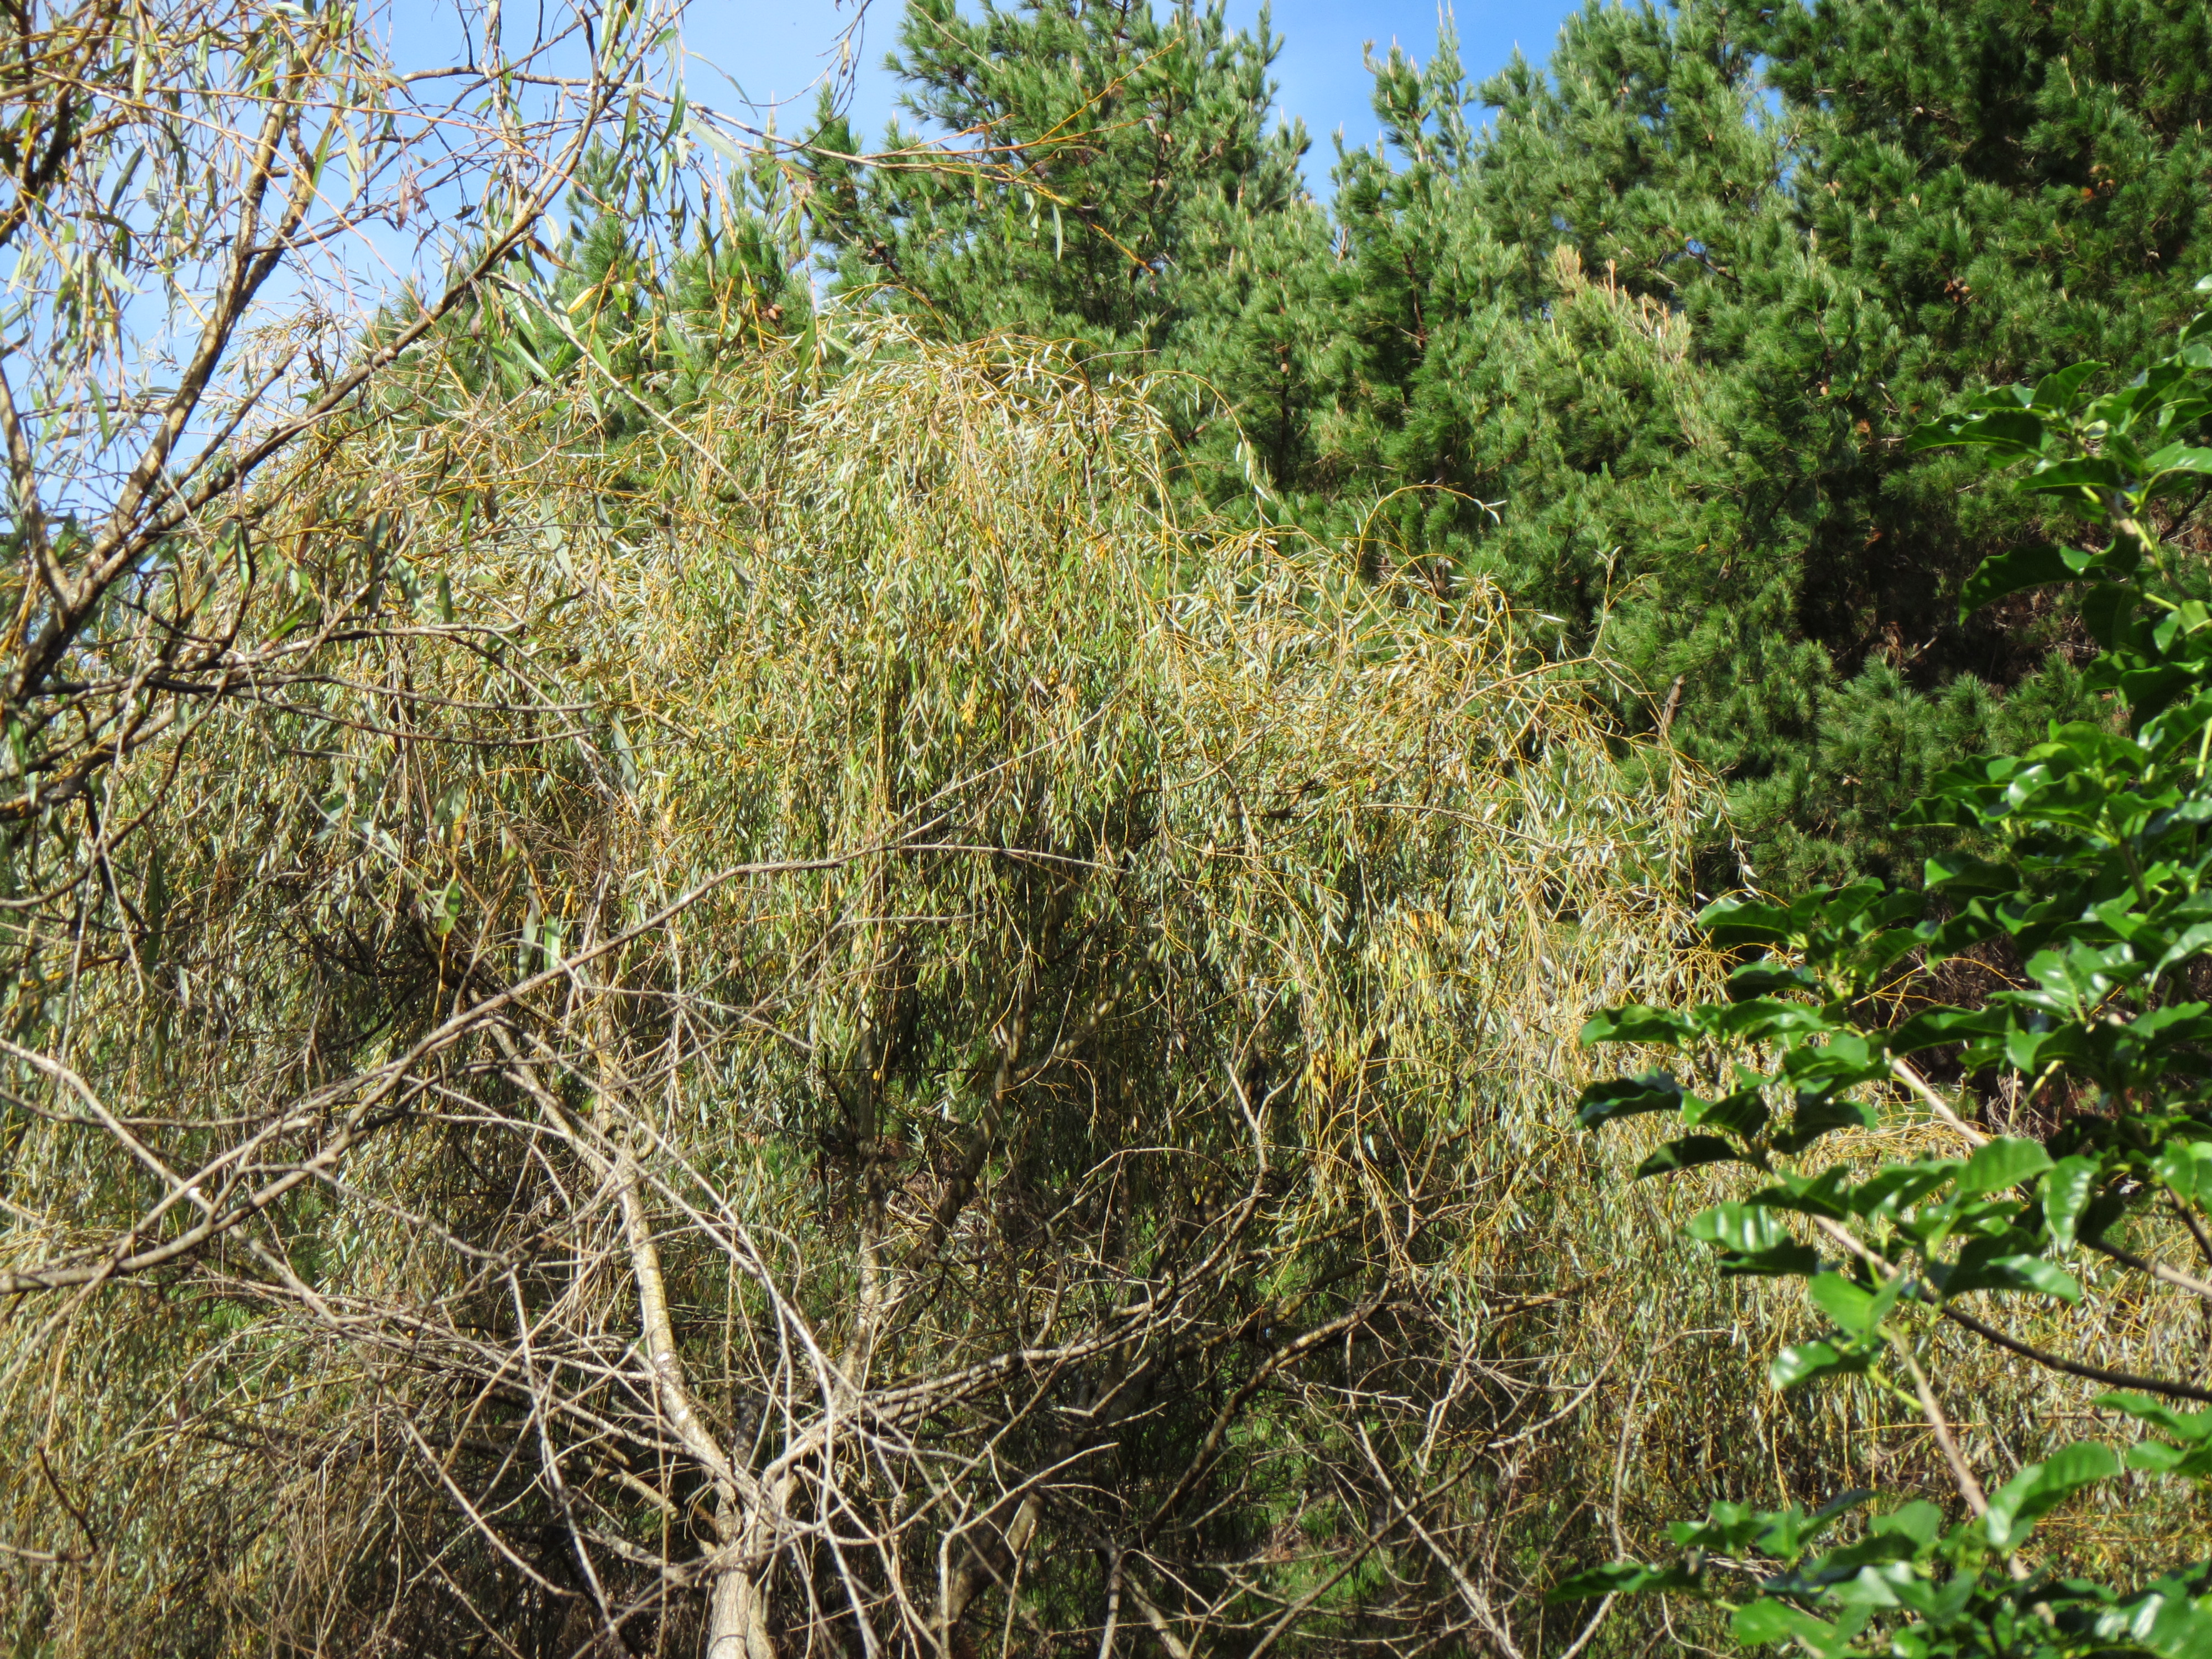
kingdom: Plantae
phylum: Tracheophyta
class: Magnoliopsida
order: Malpighiales
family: Salicaceae
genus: Salix
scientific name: Salix sepulcralis
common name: Weeping willow
